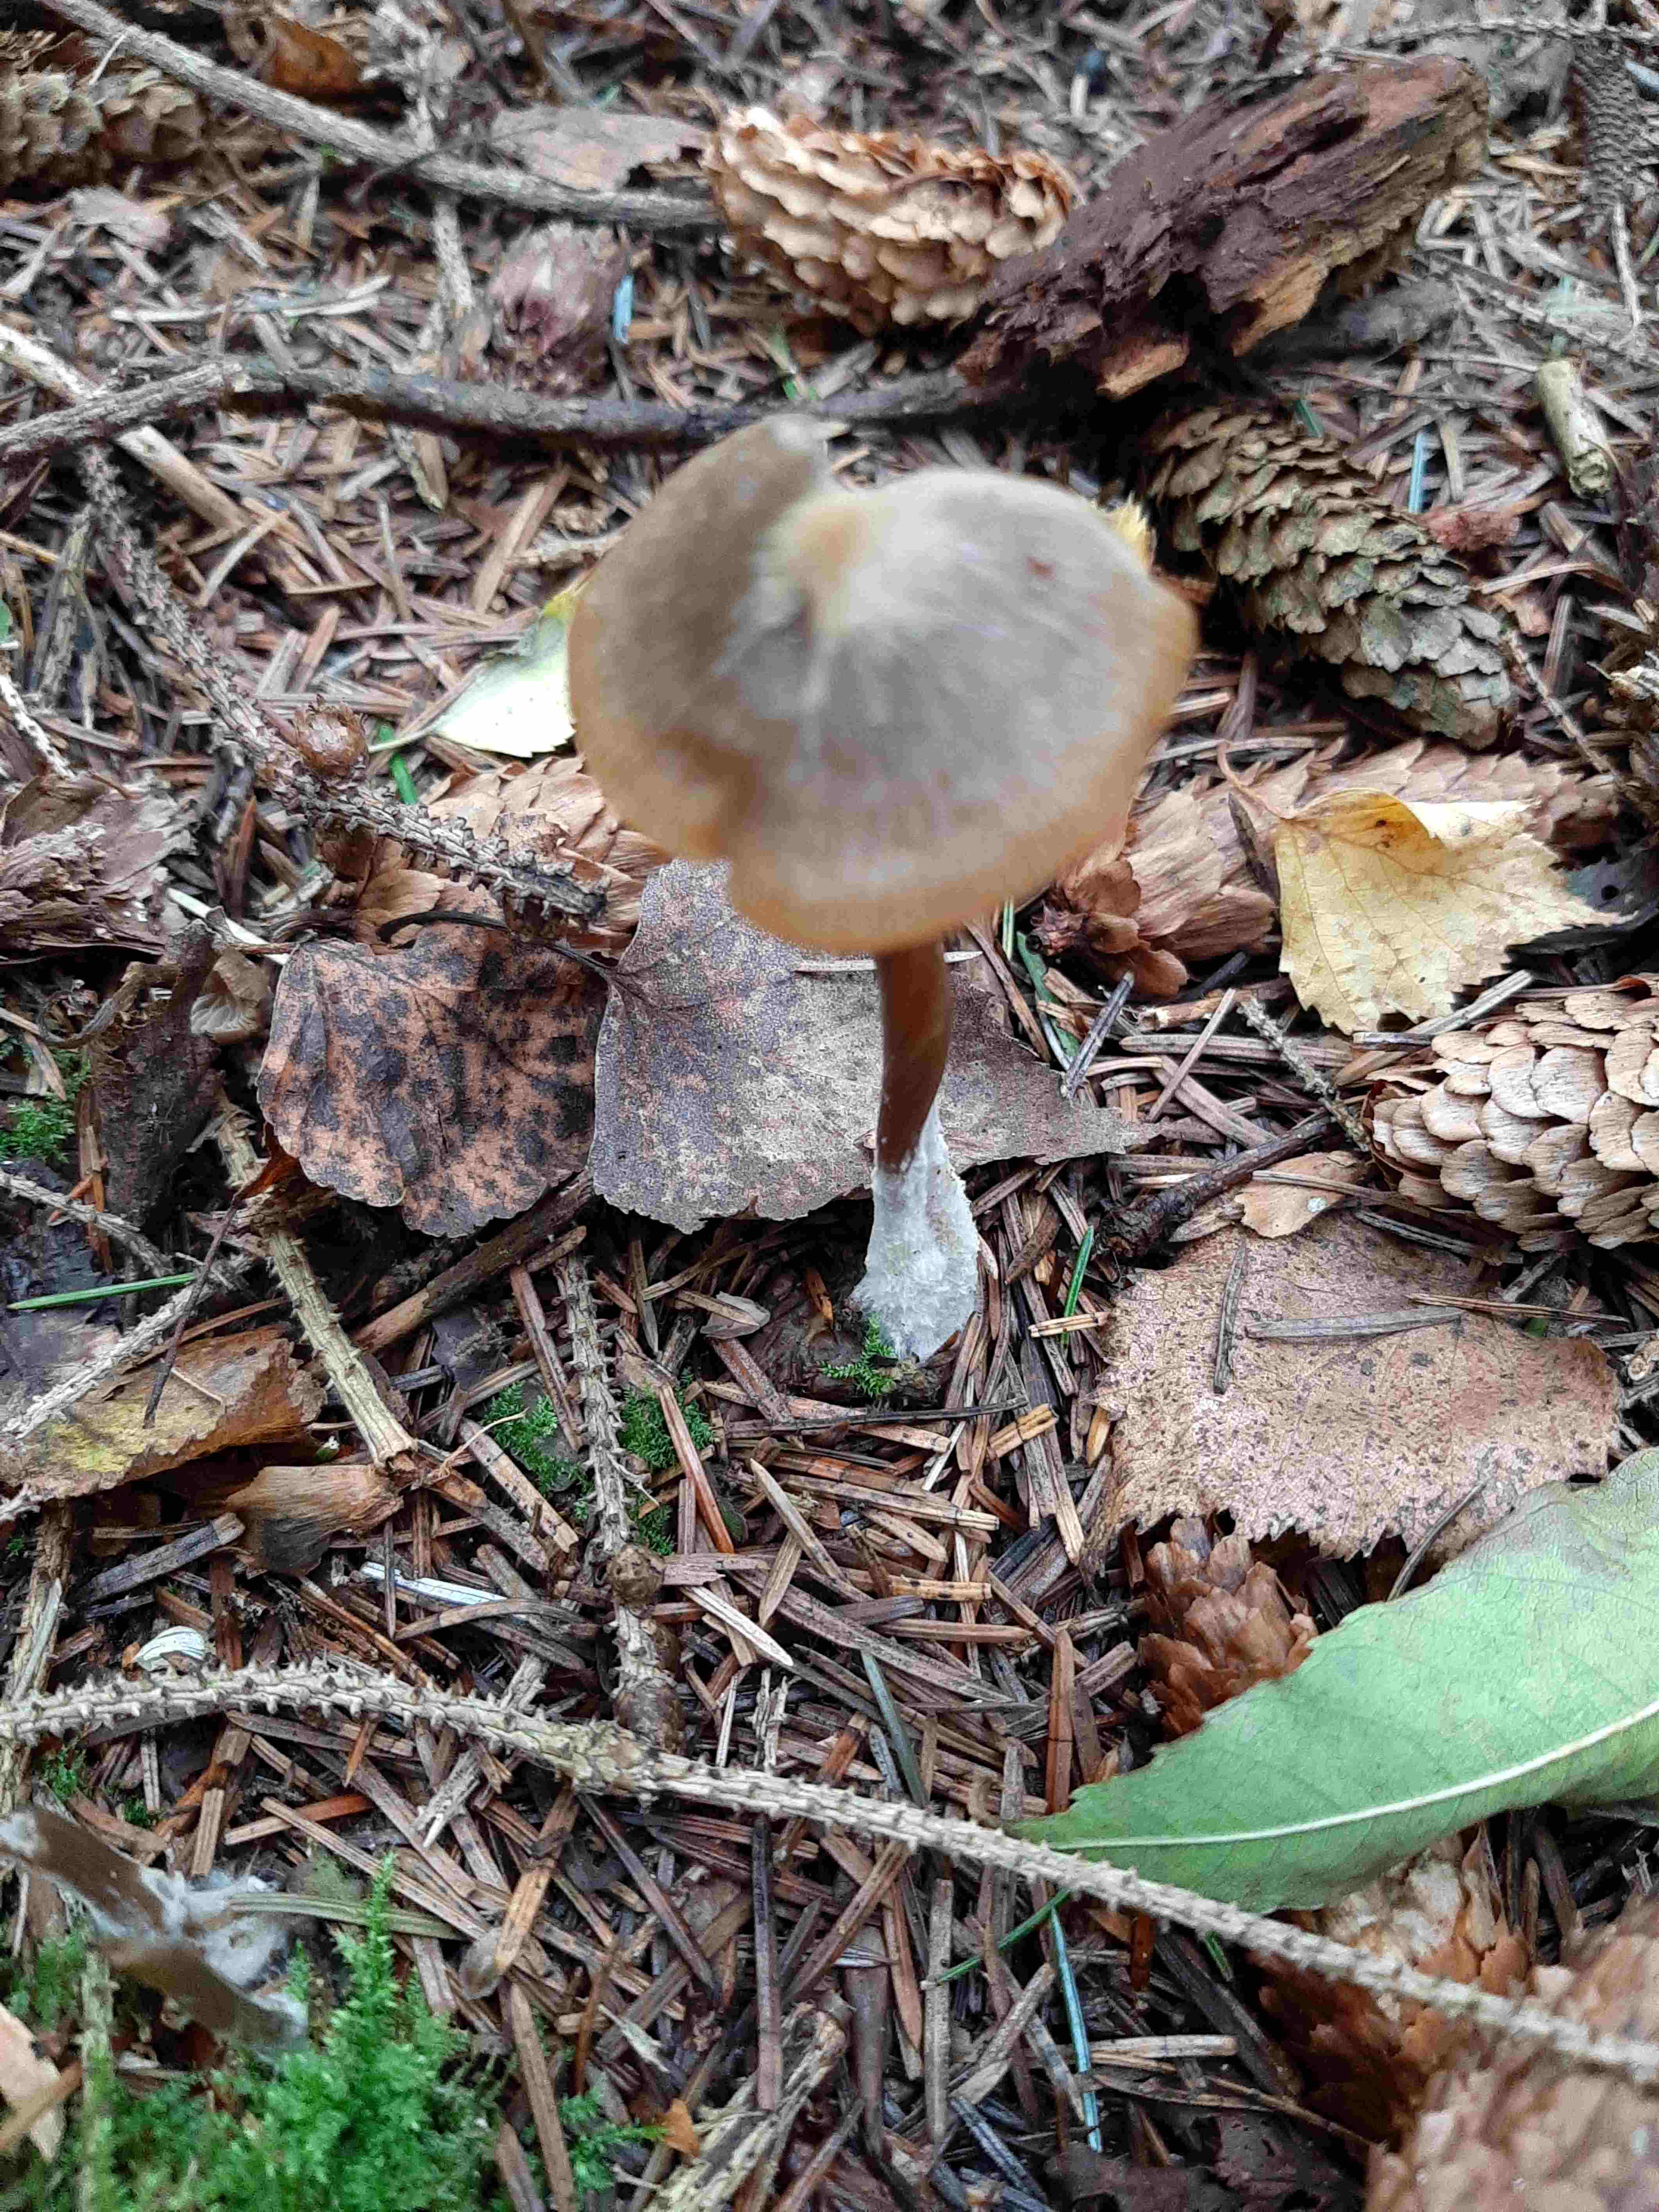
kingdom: Fungi
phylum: Basidiomycota
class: Agaricomycetes
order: Agaricales
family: Entolomataceae
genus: Entoloma
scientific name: Entoloma
